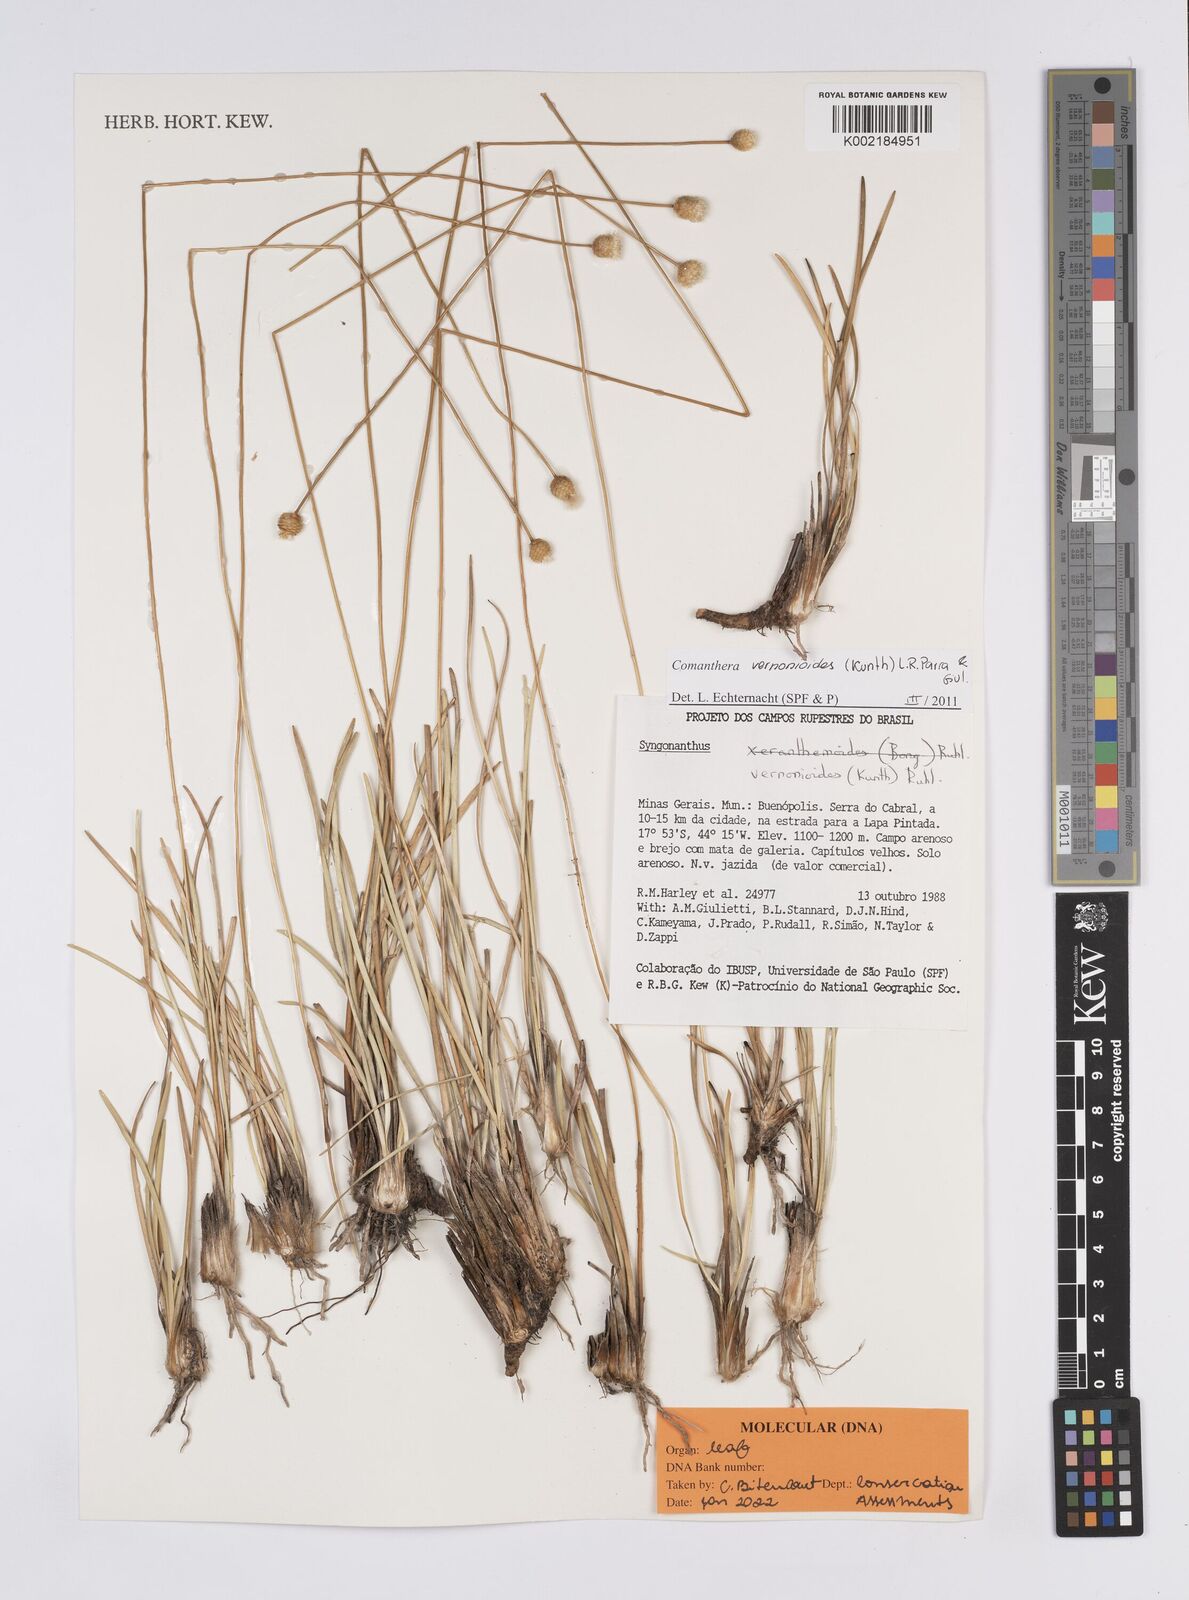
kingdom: Plantae
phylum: Tracheophyta
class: Liliopsida
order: Poales
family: Eriocaulaceae
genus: Comanthera
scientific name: Comanthera centauroides
